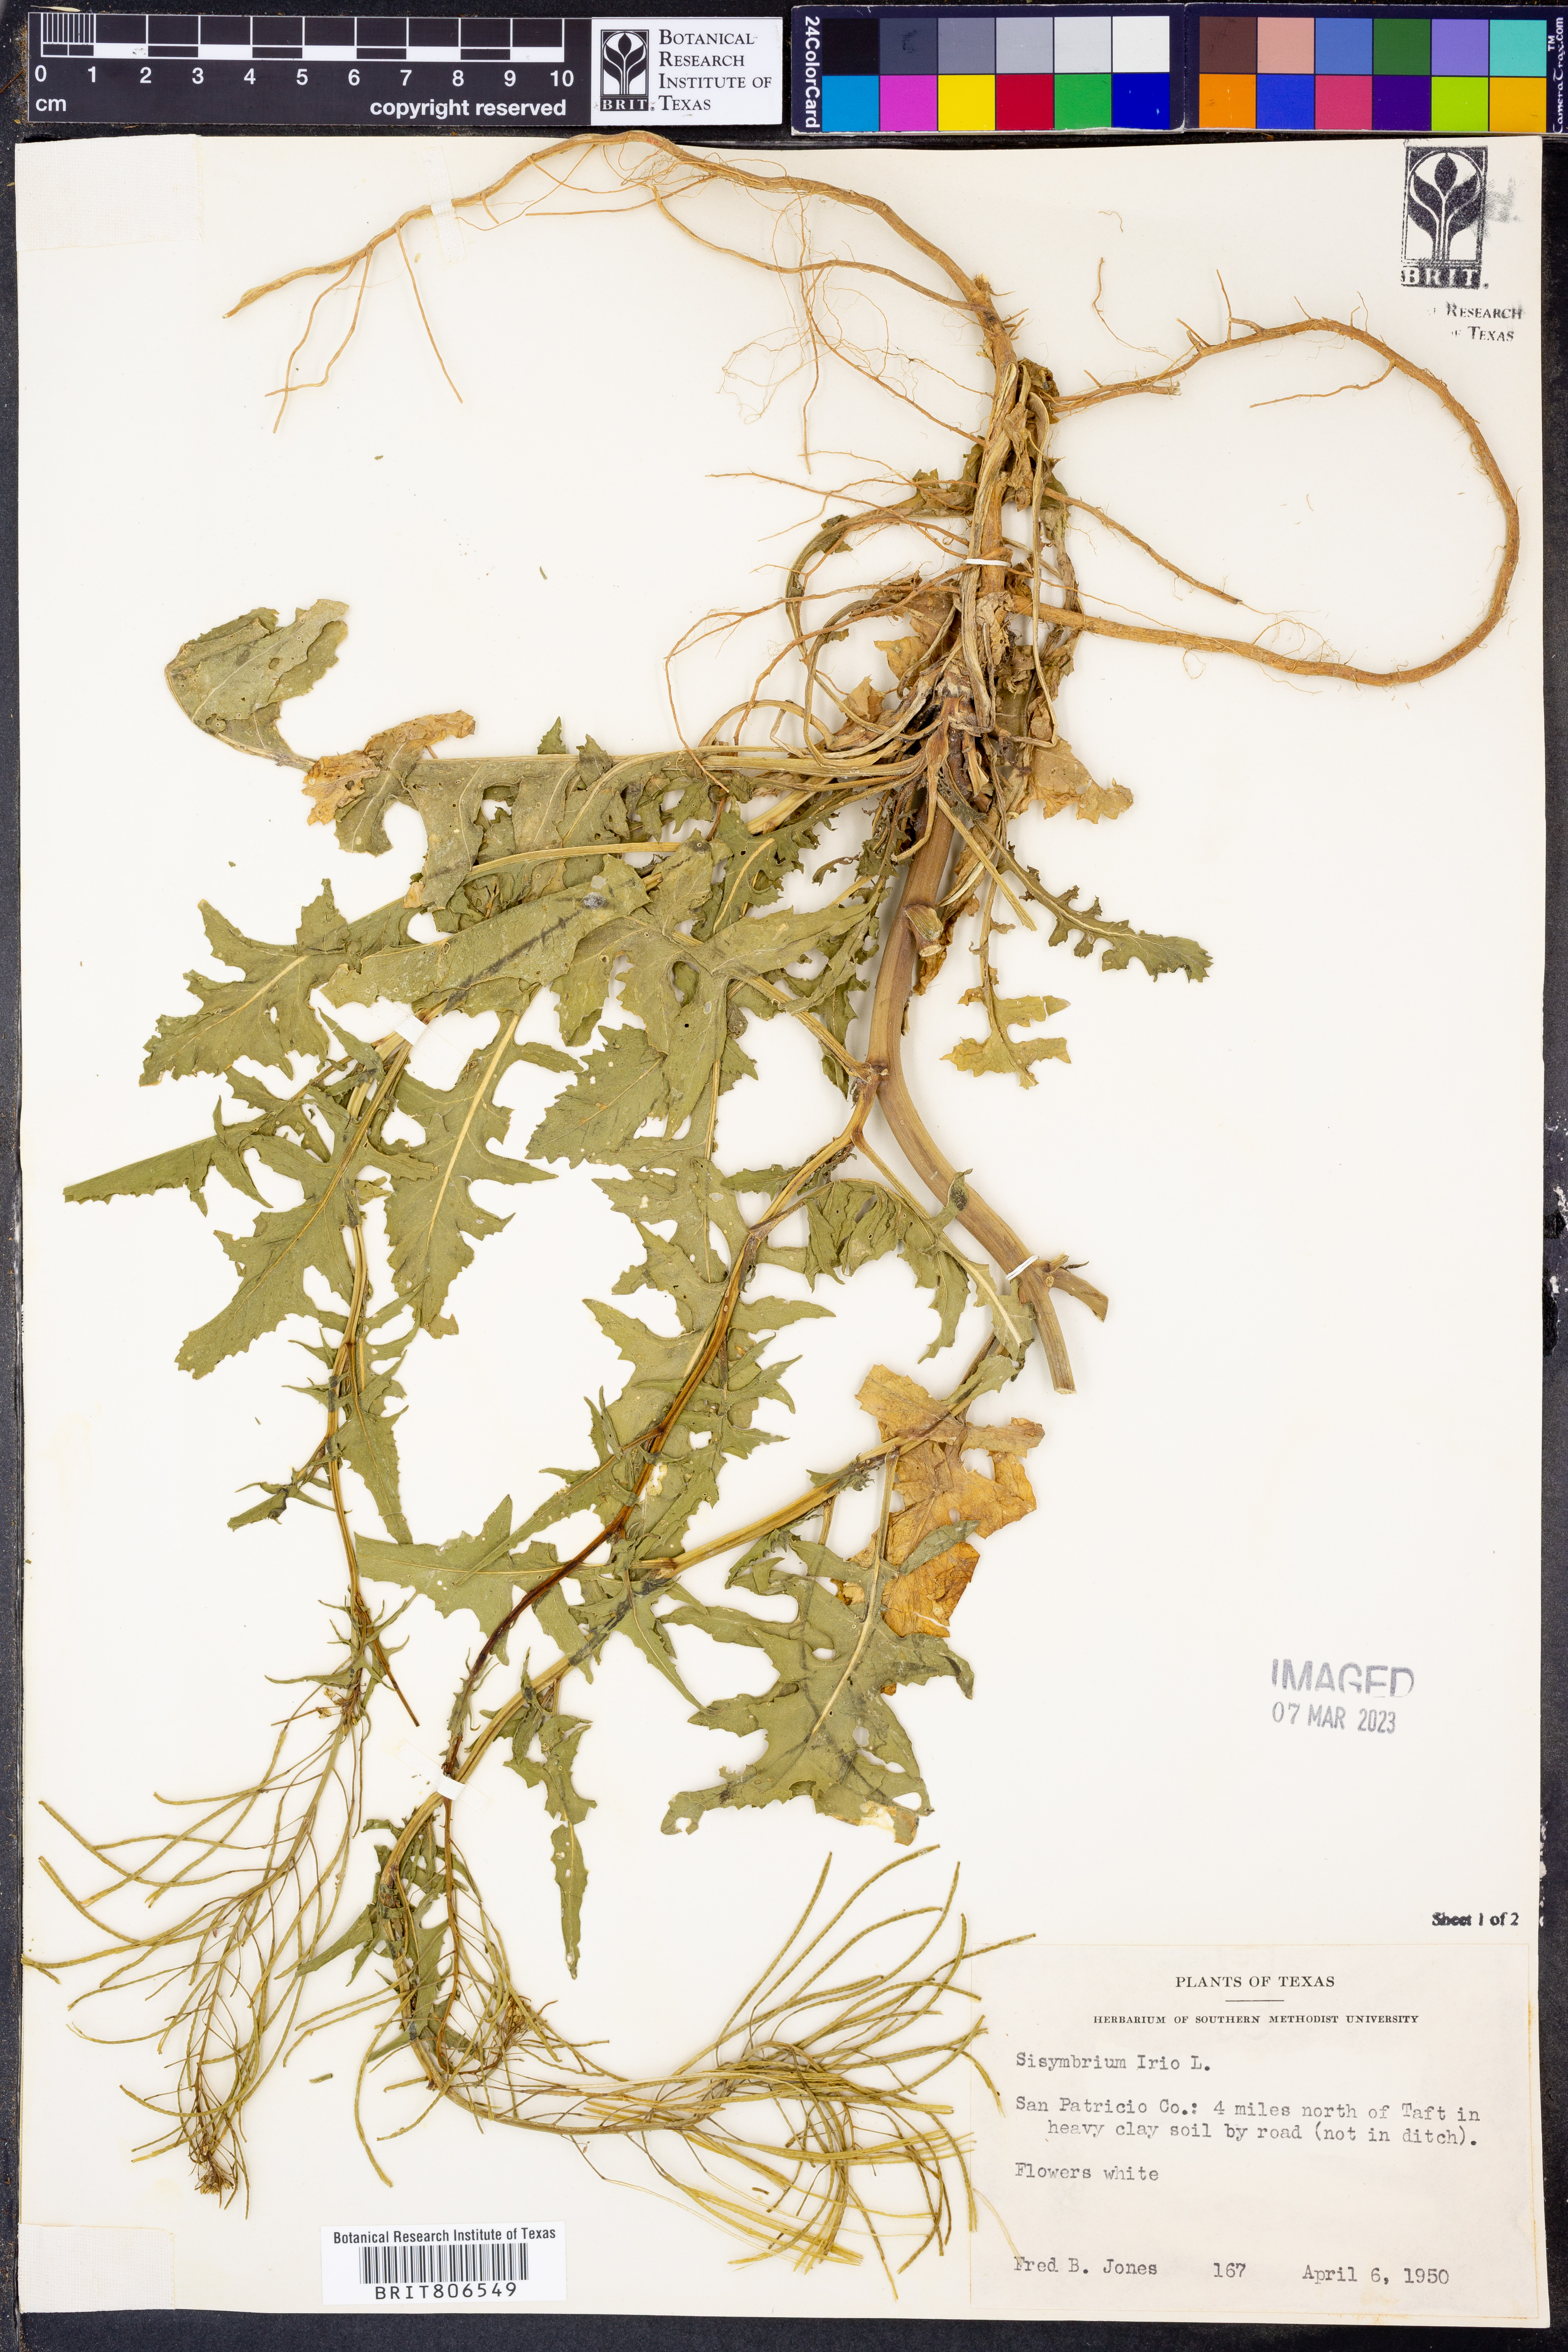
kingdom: Plantae
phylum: Tracheophyta
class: Magnoliopsida
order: Brassicales
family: Brassicaceae
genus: Sisymbrium
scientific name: Sisymbrium irio
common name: London rocket
